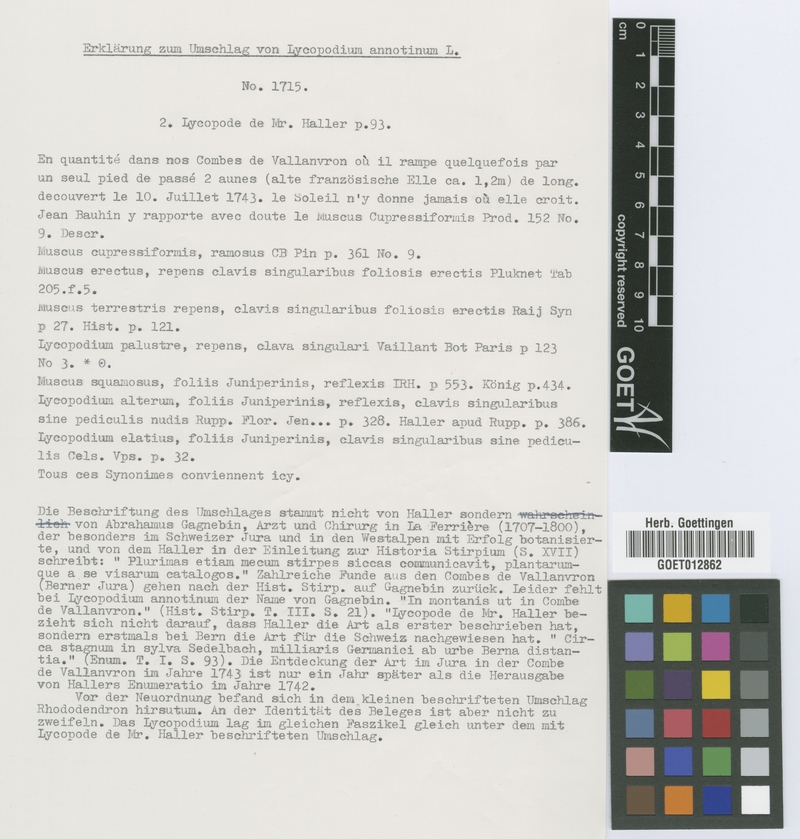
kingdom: Plantae
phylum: Tracheophyta
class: Lycopodiopsida
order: Lycopodiales
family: Lycopodiaceae
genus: Spinulum
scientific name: Spinulum annotinum
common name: Interrupted club-moss
